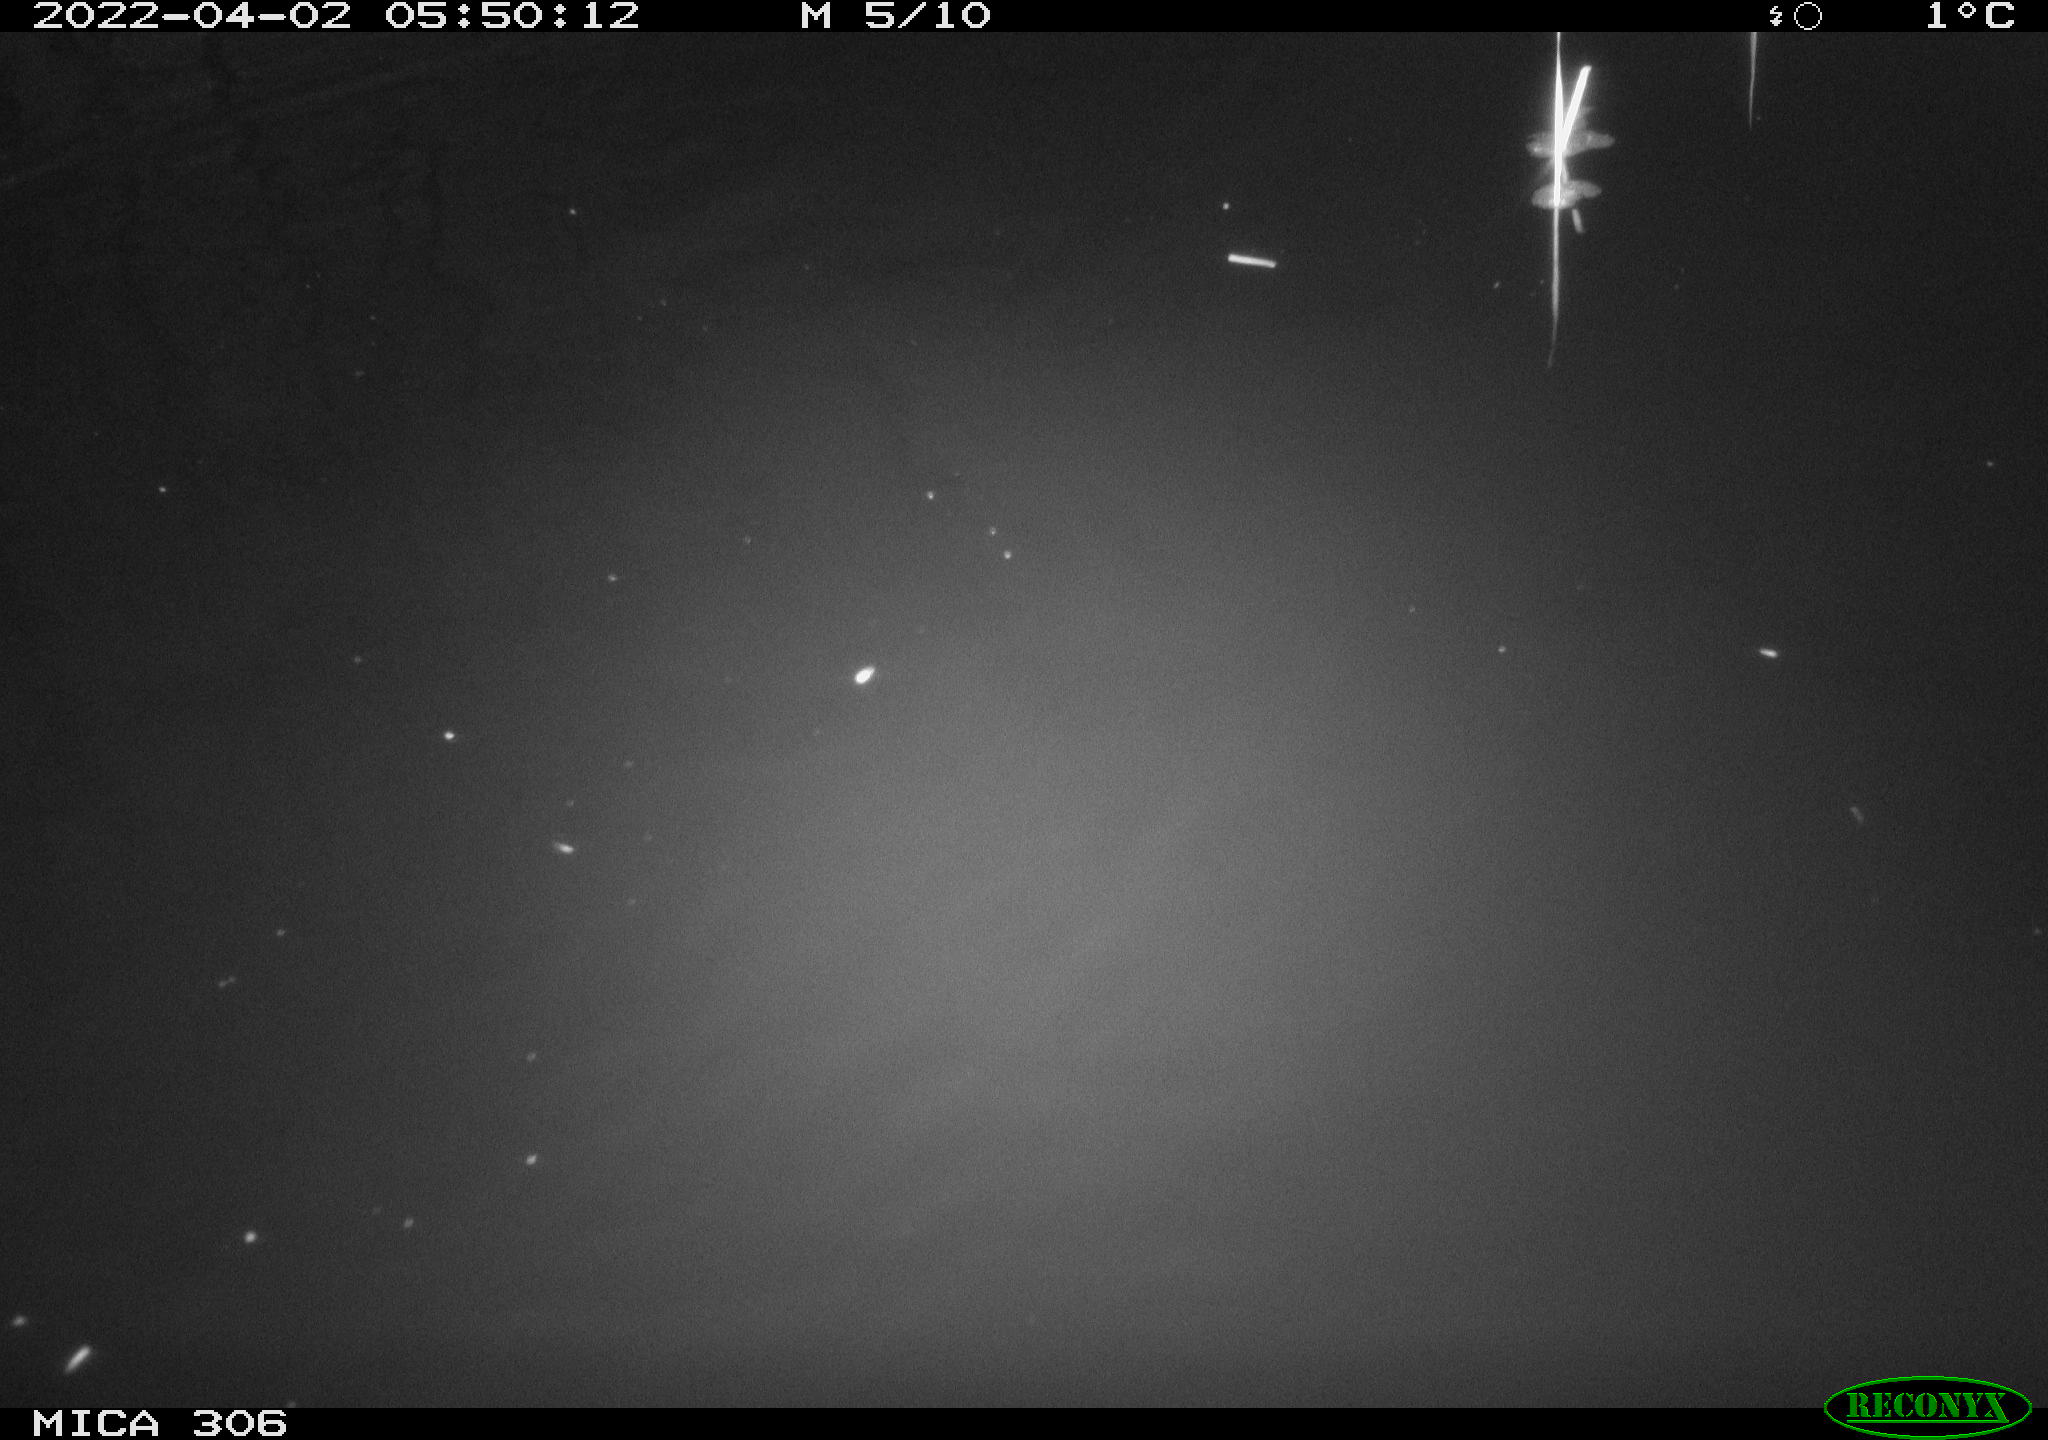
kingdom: Animalia
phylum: Chordata
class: Aves
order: Anseriformes
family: Anatidae
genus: Anas
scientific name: Anas
